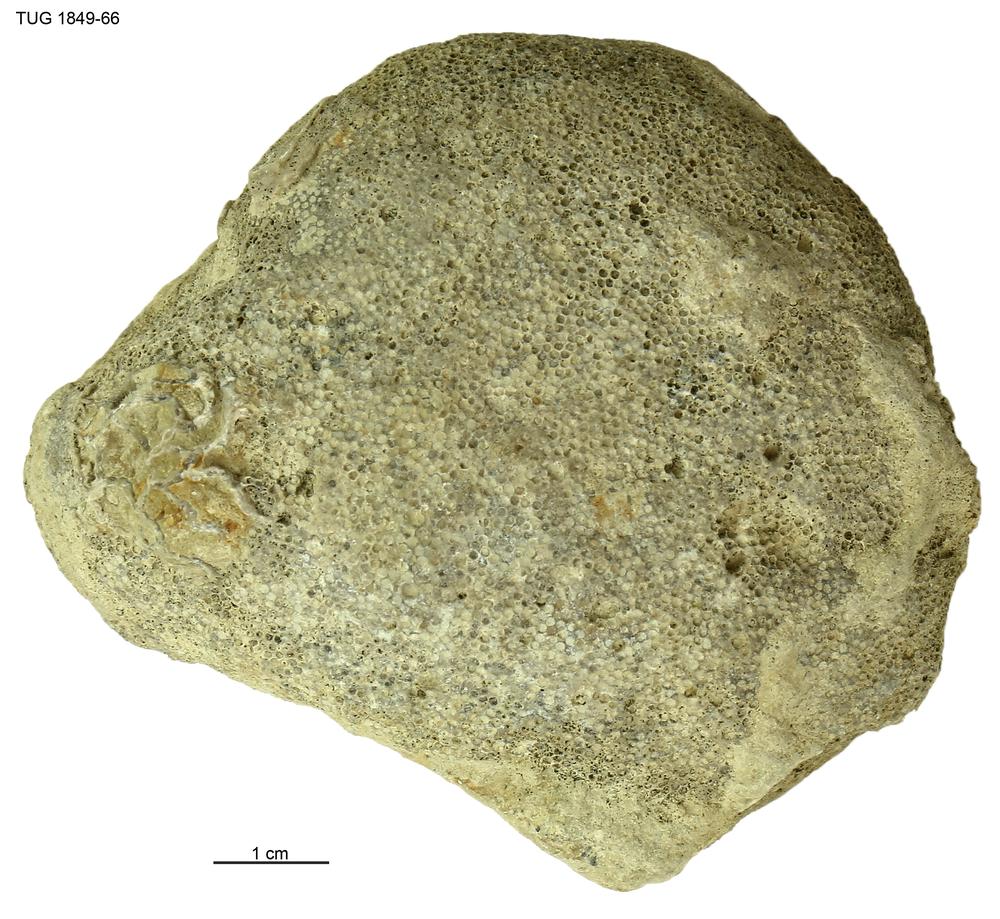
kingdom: Animalia
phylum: Bryozoa
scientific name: Bryozoa
